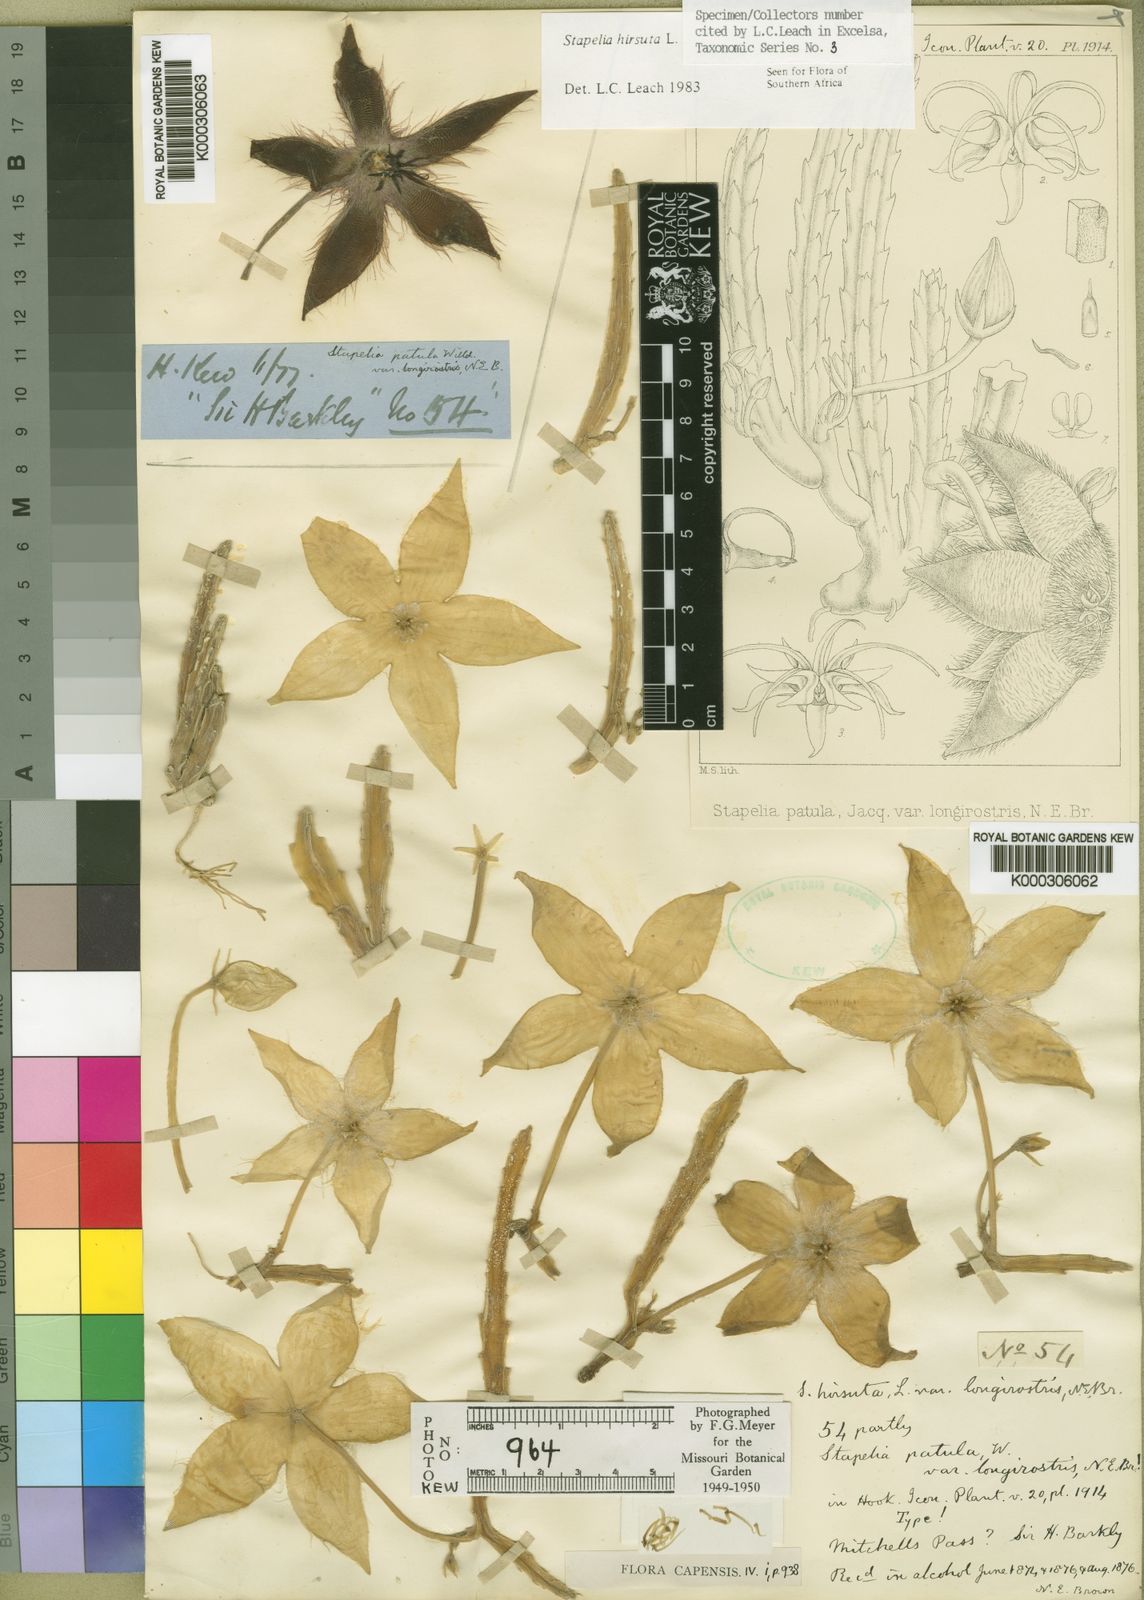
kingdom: Plantae
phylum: Tracheophyta
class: Magnoliopsida
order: Gentianales
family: Apocynaceae
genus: Ceropegia
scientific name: Ceropegia pulvinata
